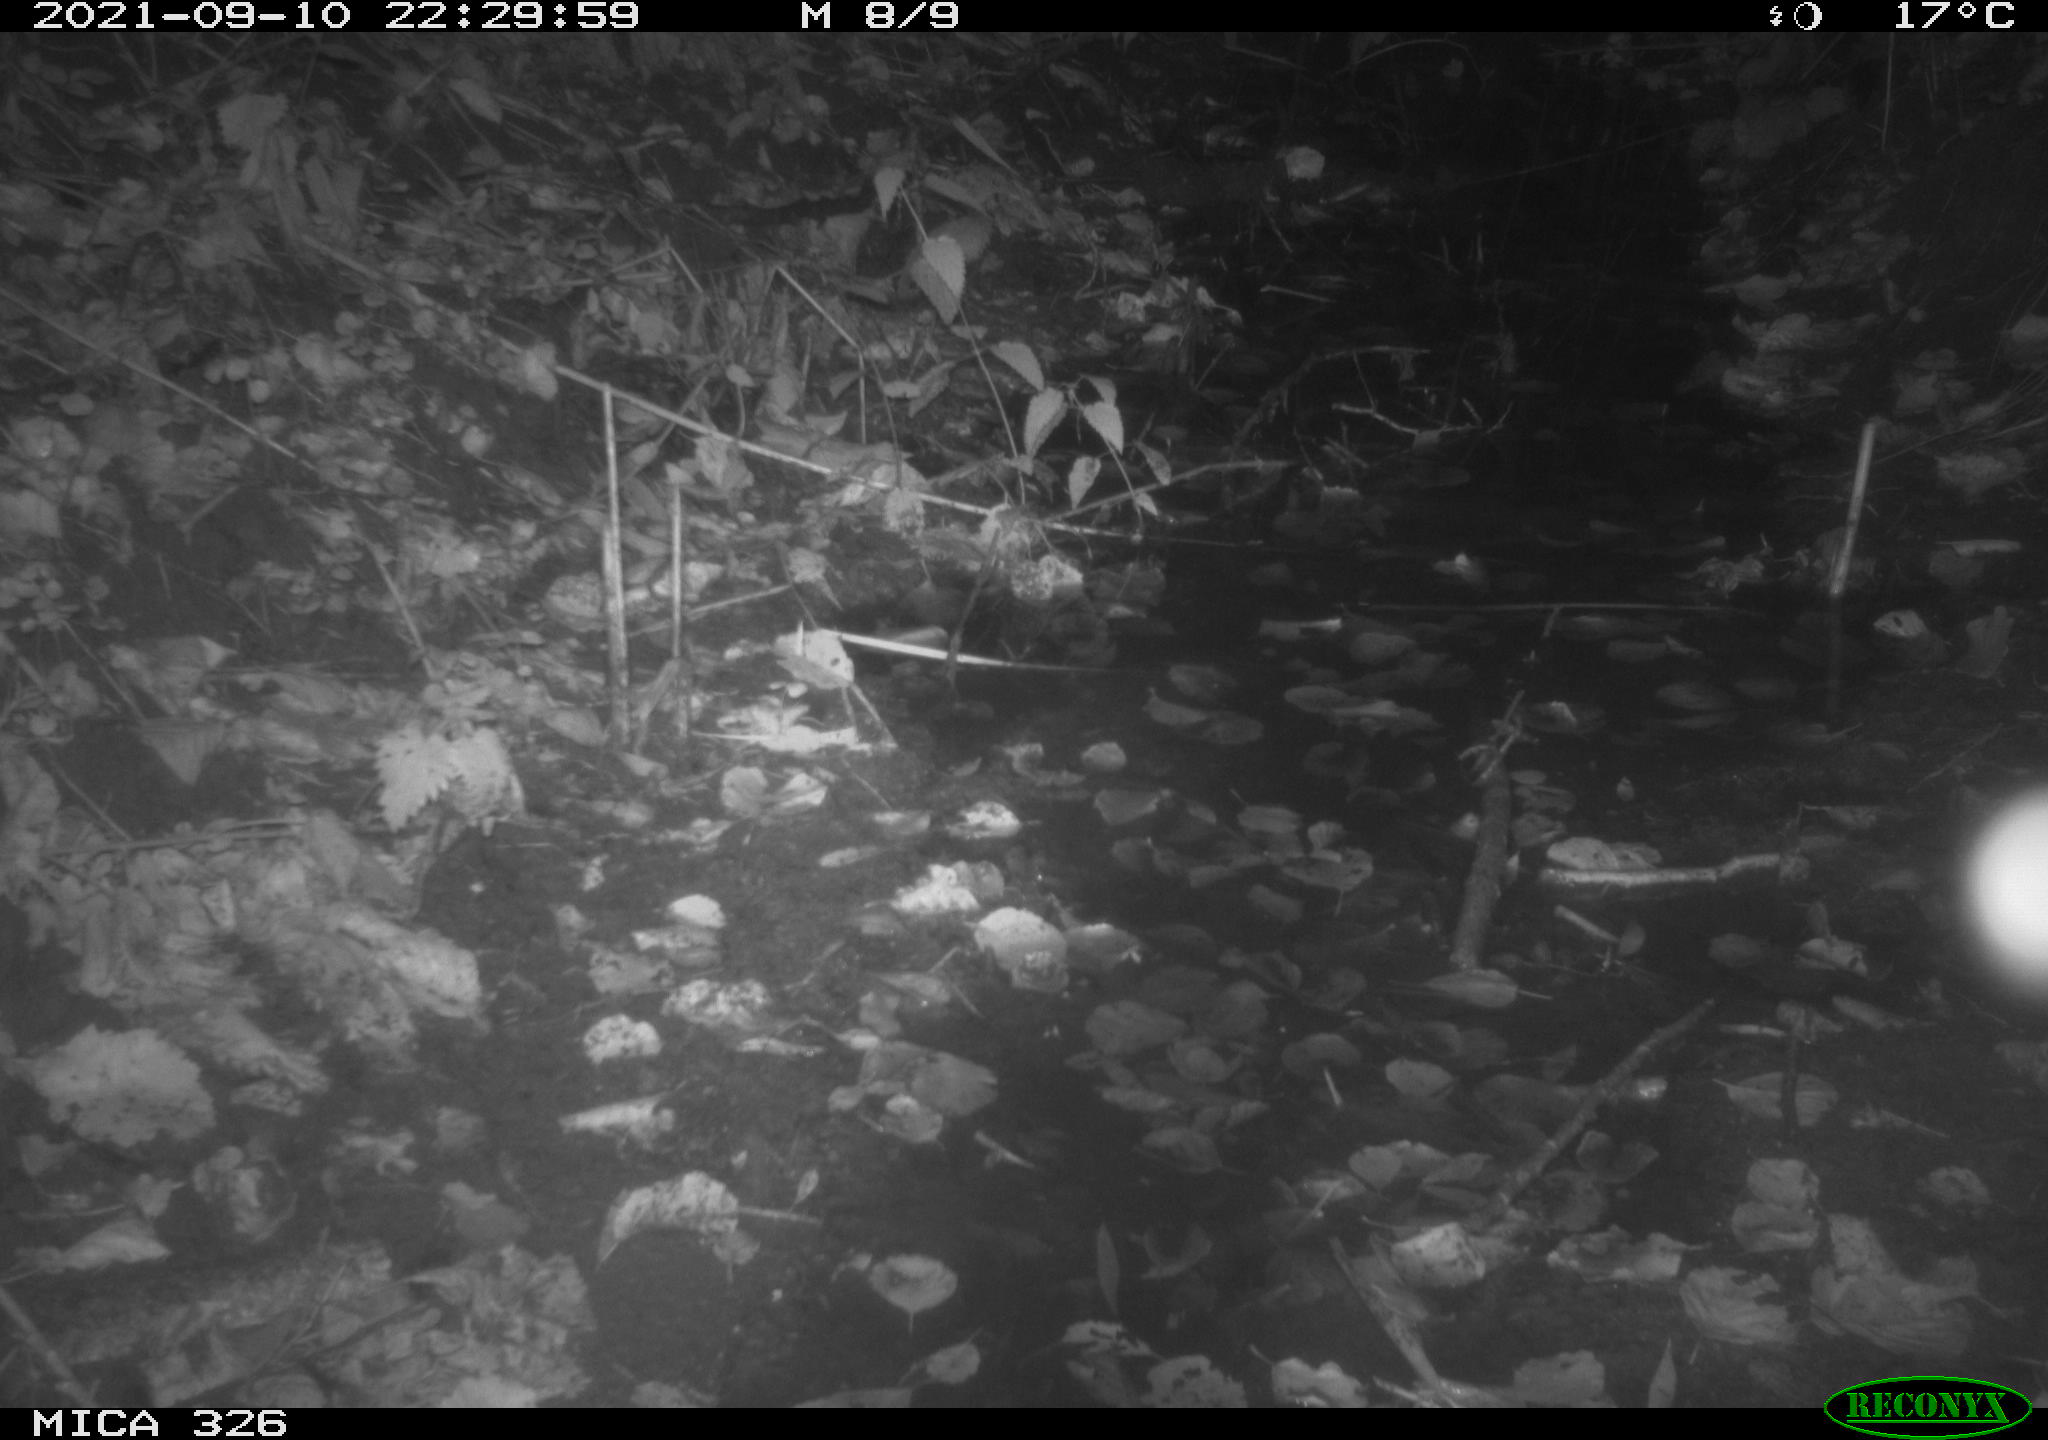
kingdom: Animalia
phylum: Chordata
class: Mammalia
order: Rodentia
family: Muridae
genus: Rattus
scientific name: Rattus norvegicus
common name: Brown rat
